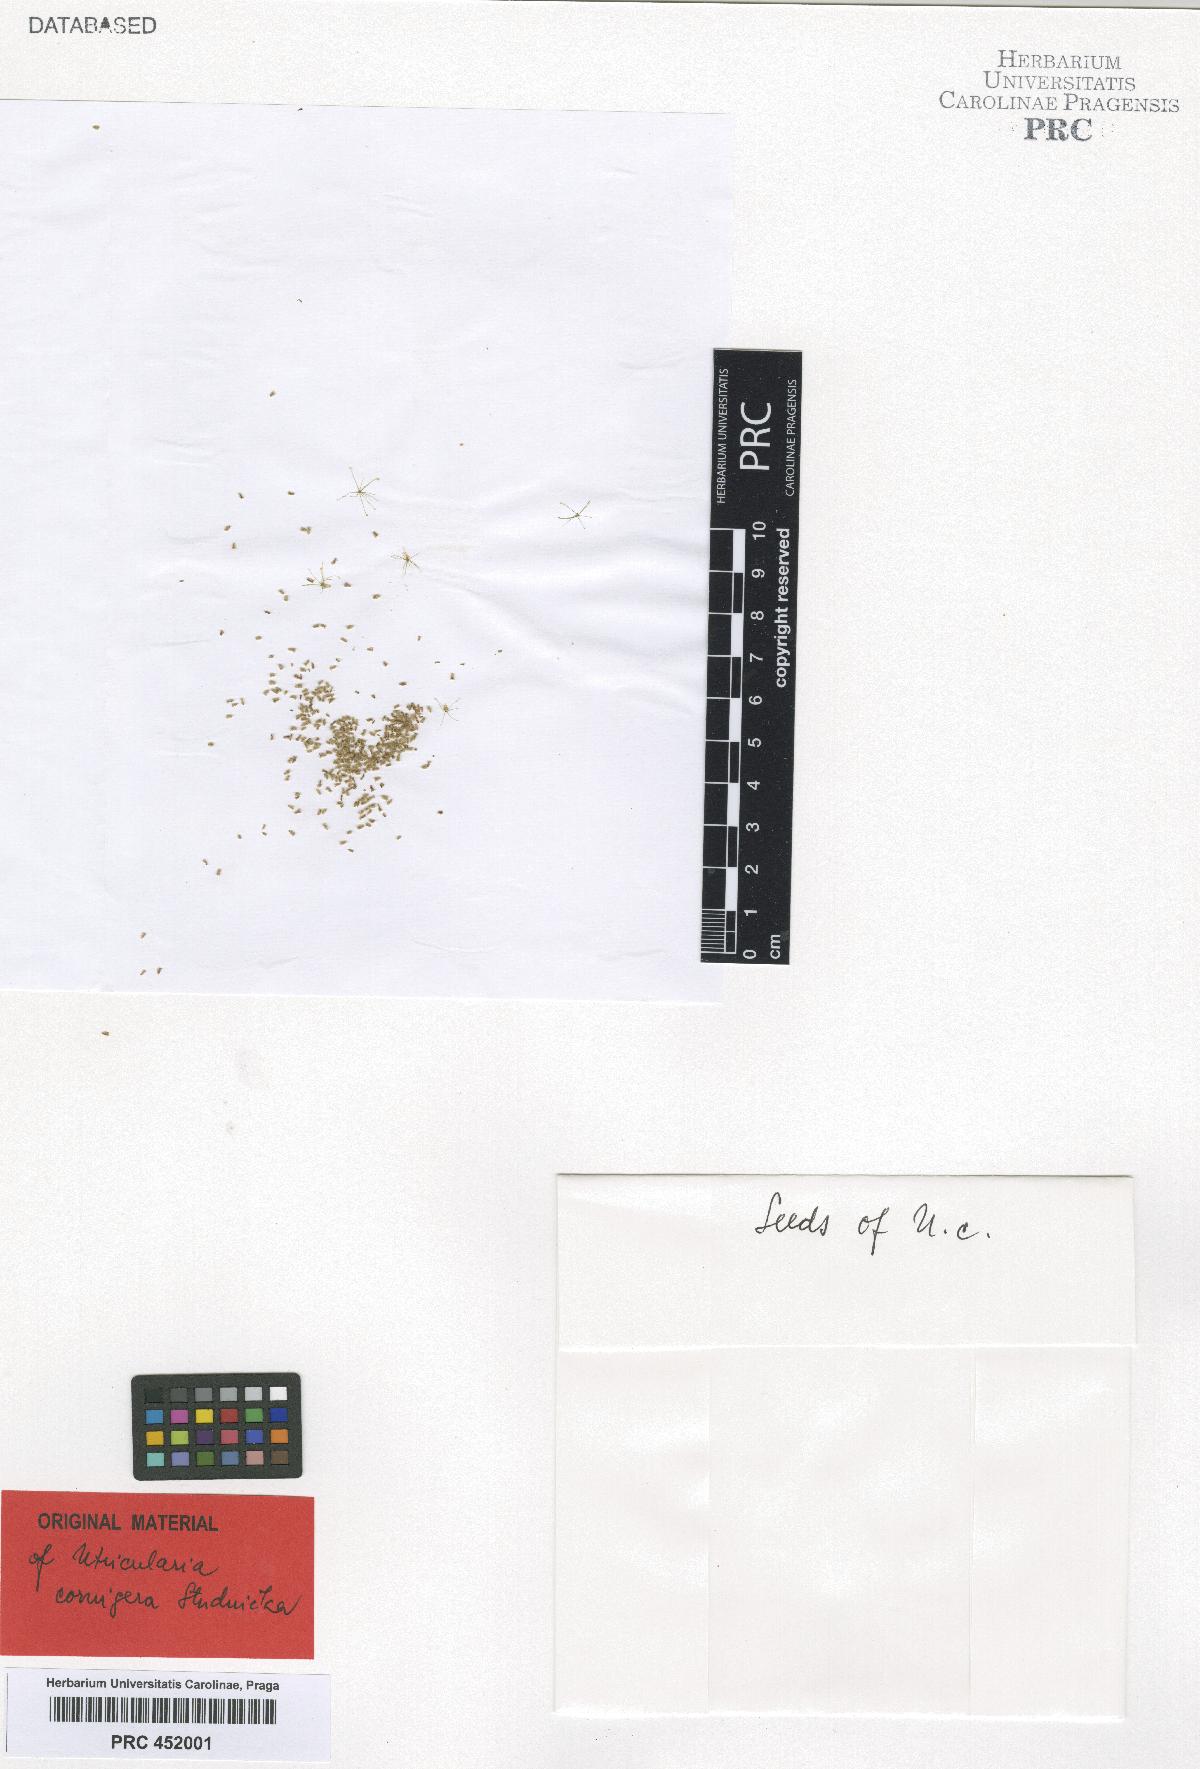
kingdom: Plantae
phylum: Tracheophyta
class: Magnoliopsida
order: Lamiales
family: Lentibulariaceae
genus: Utricularia
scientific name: Utricularia cornigera
